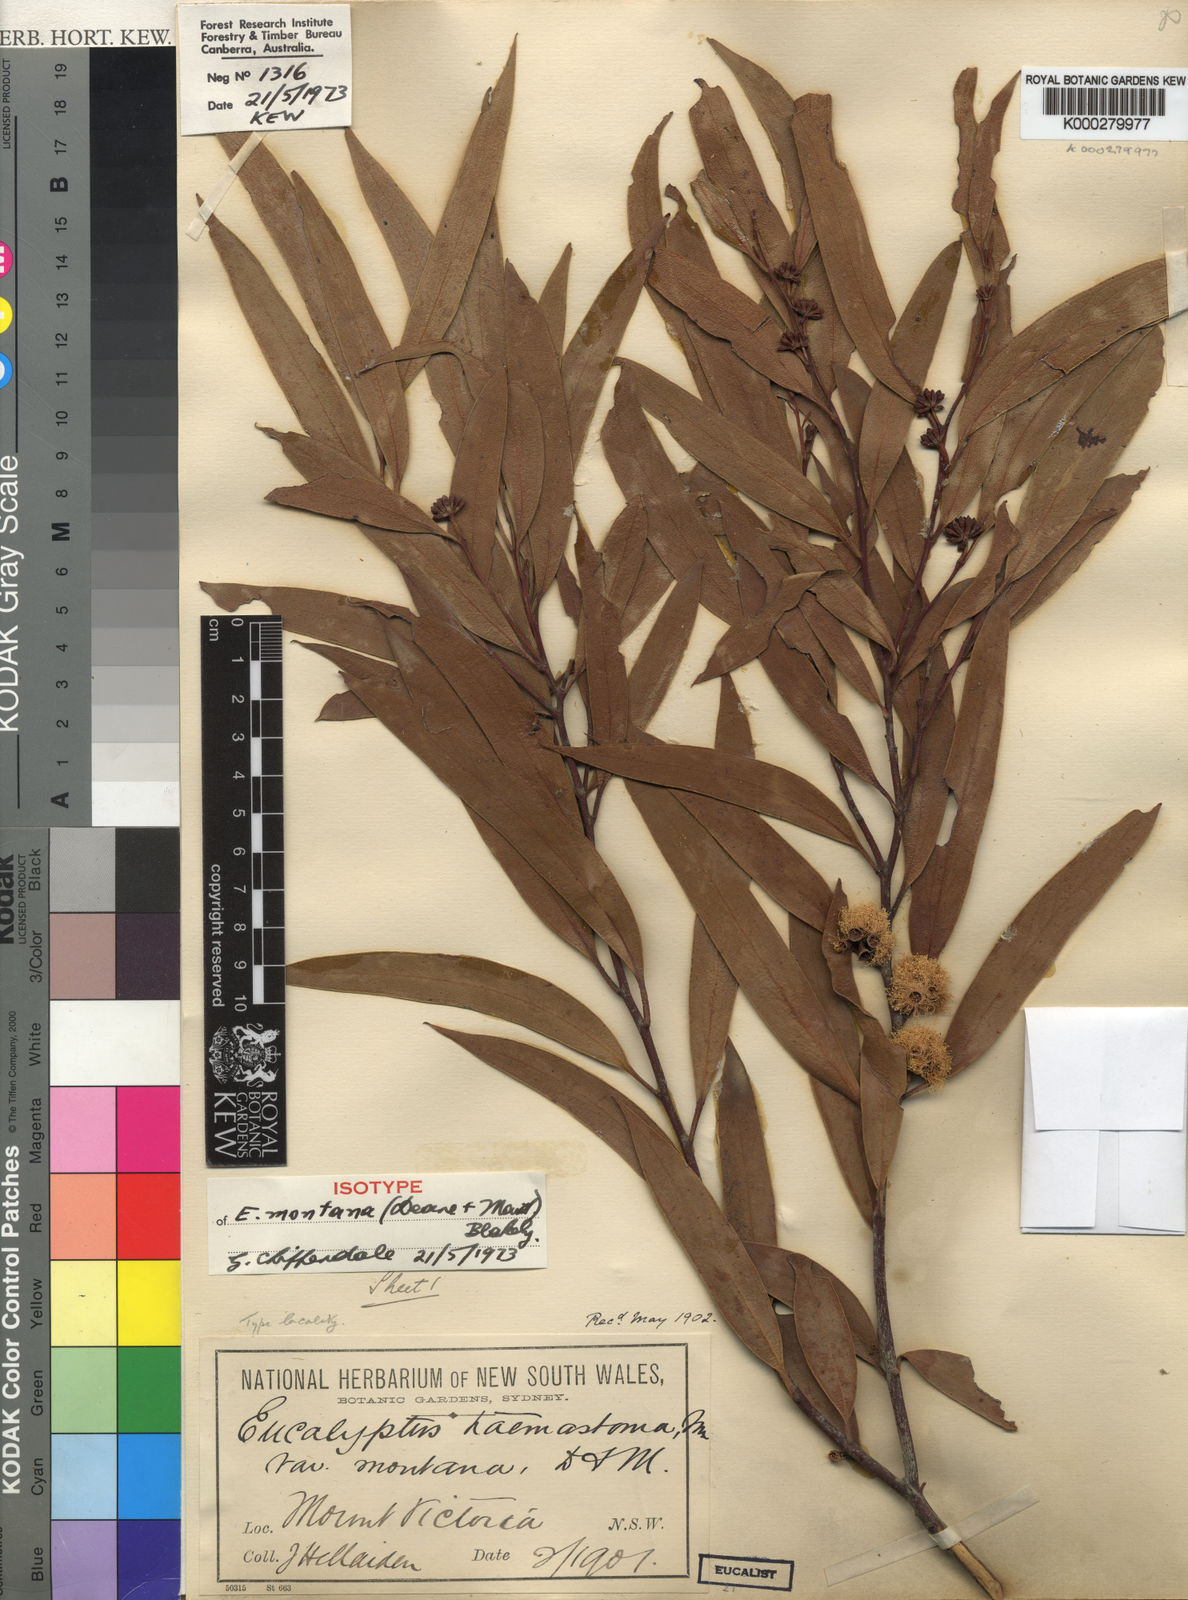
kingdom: Plantae
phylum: Tracheophyta
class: Magnoliopsida
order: Myrtales
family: Myrtaceae
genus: Eucalyptus
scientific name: Eucalyptus montana
